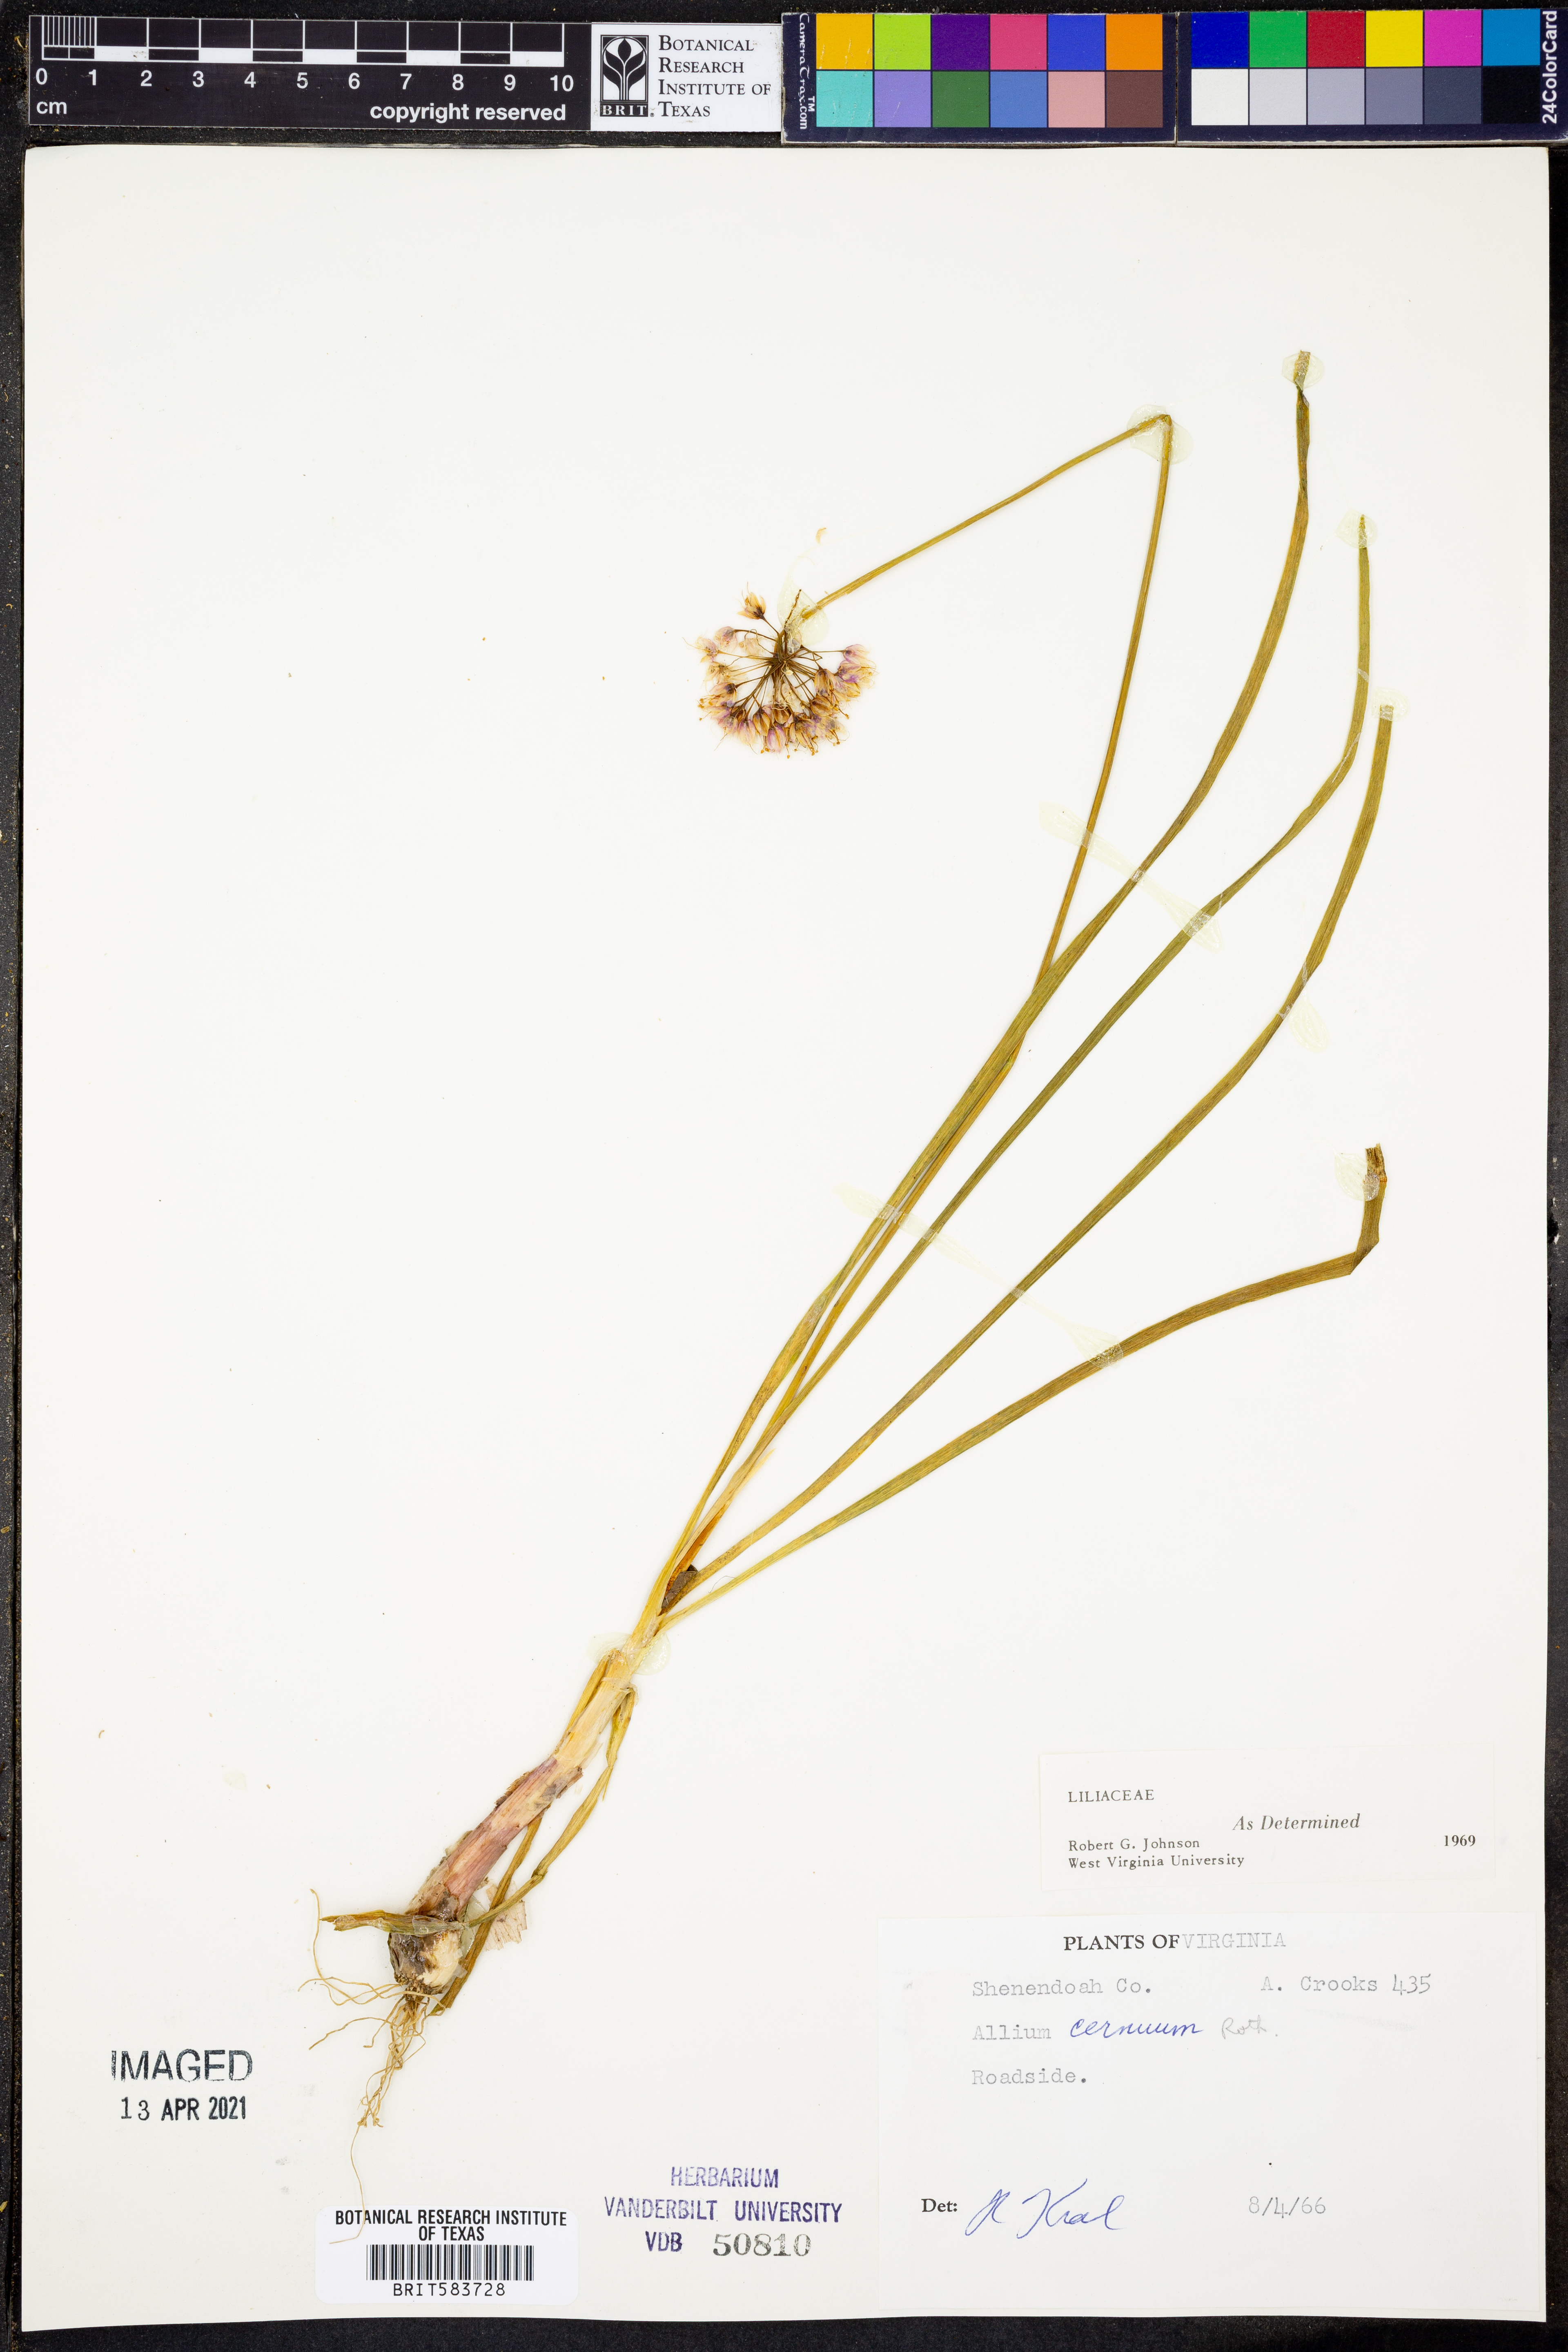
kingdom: Plantae
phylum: Tracheophyta
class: Liliopsida
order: Asparagales
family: Amaryllidaceae
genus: Allium
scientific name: Allium cernuum
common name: Nodding onion
